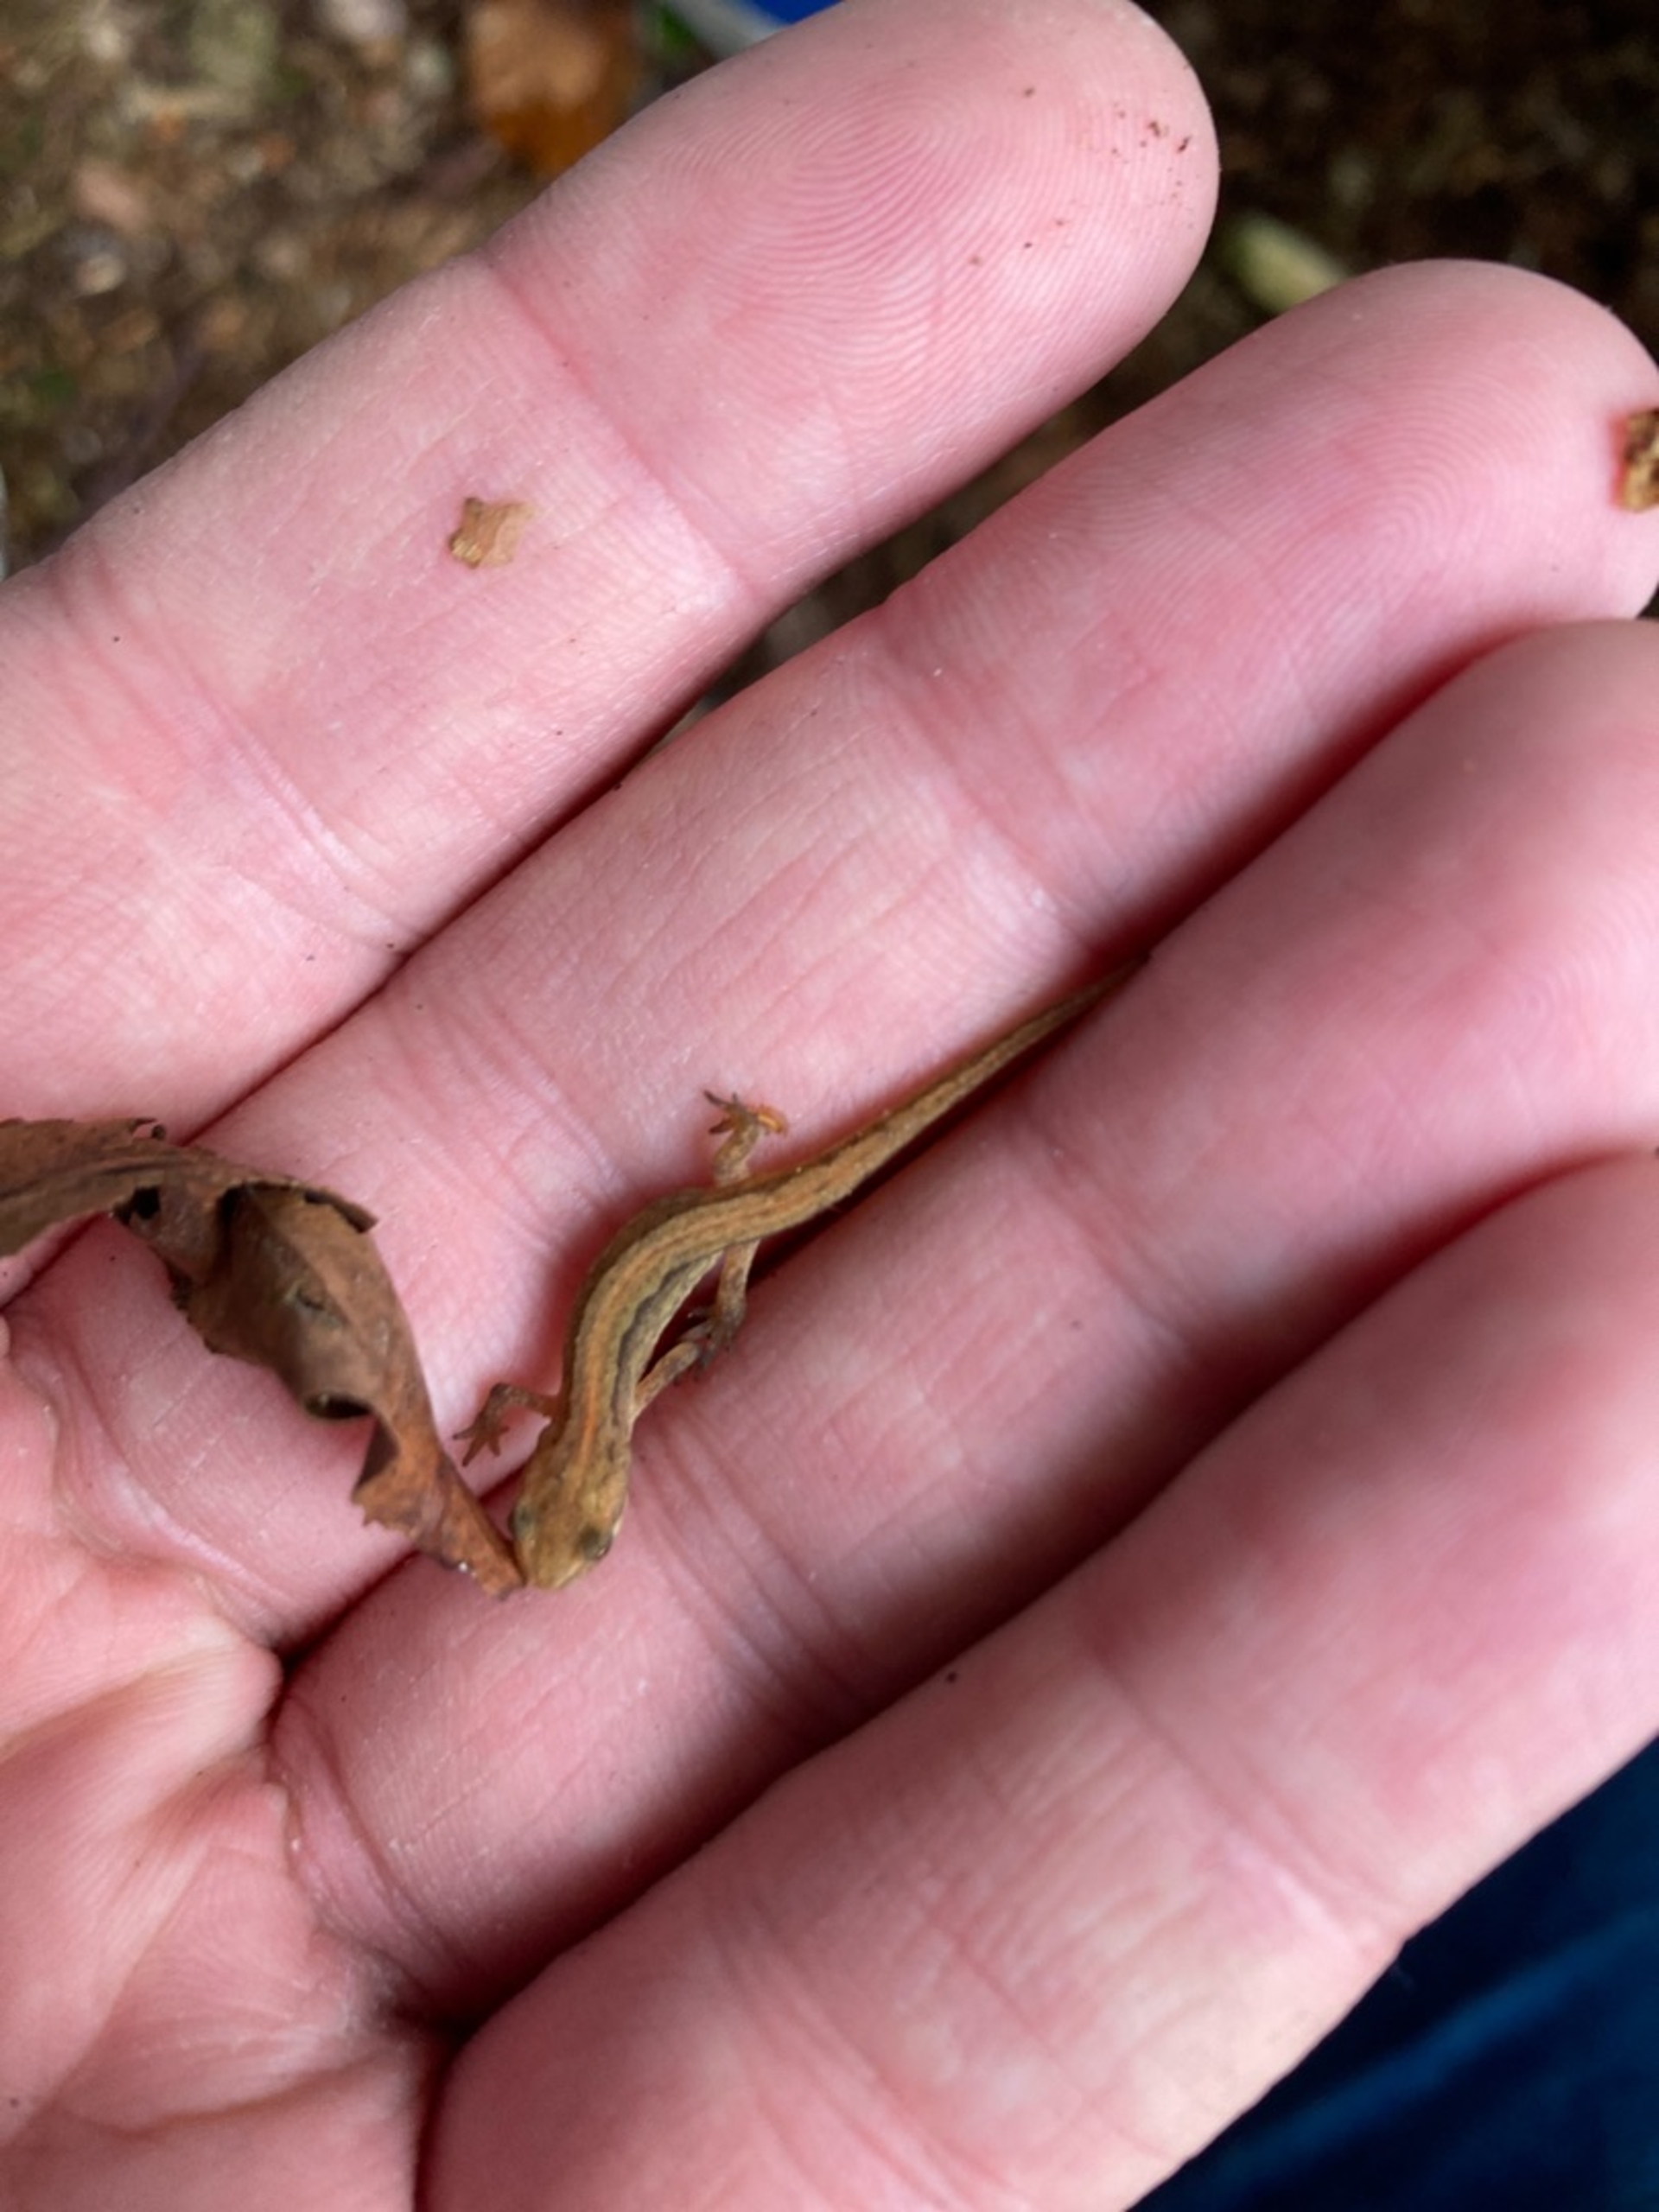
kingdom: Animalia
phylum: Chordata
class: Amphibia
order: Caudata
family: Salamandridae
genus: Lissotriton
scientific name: Lissotriton vulgaris
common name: Lille vandsalamander
